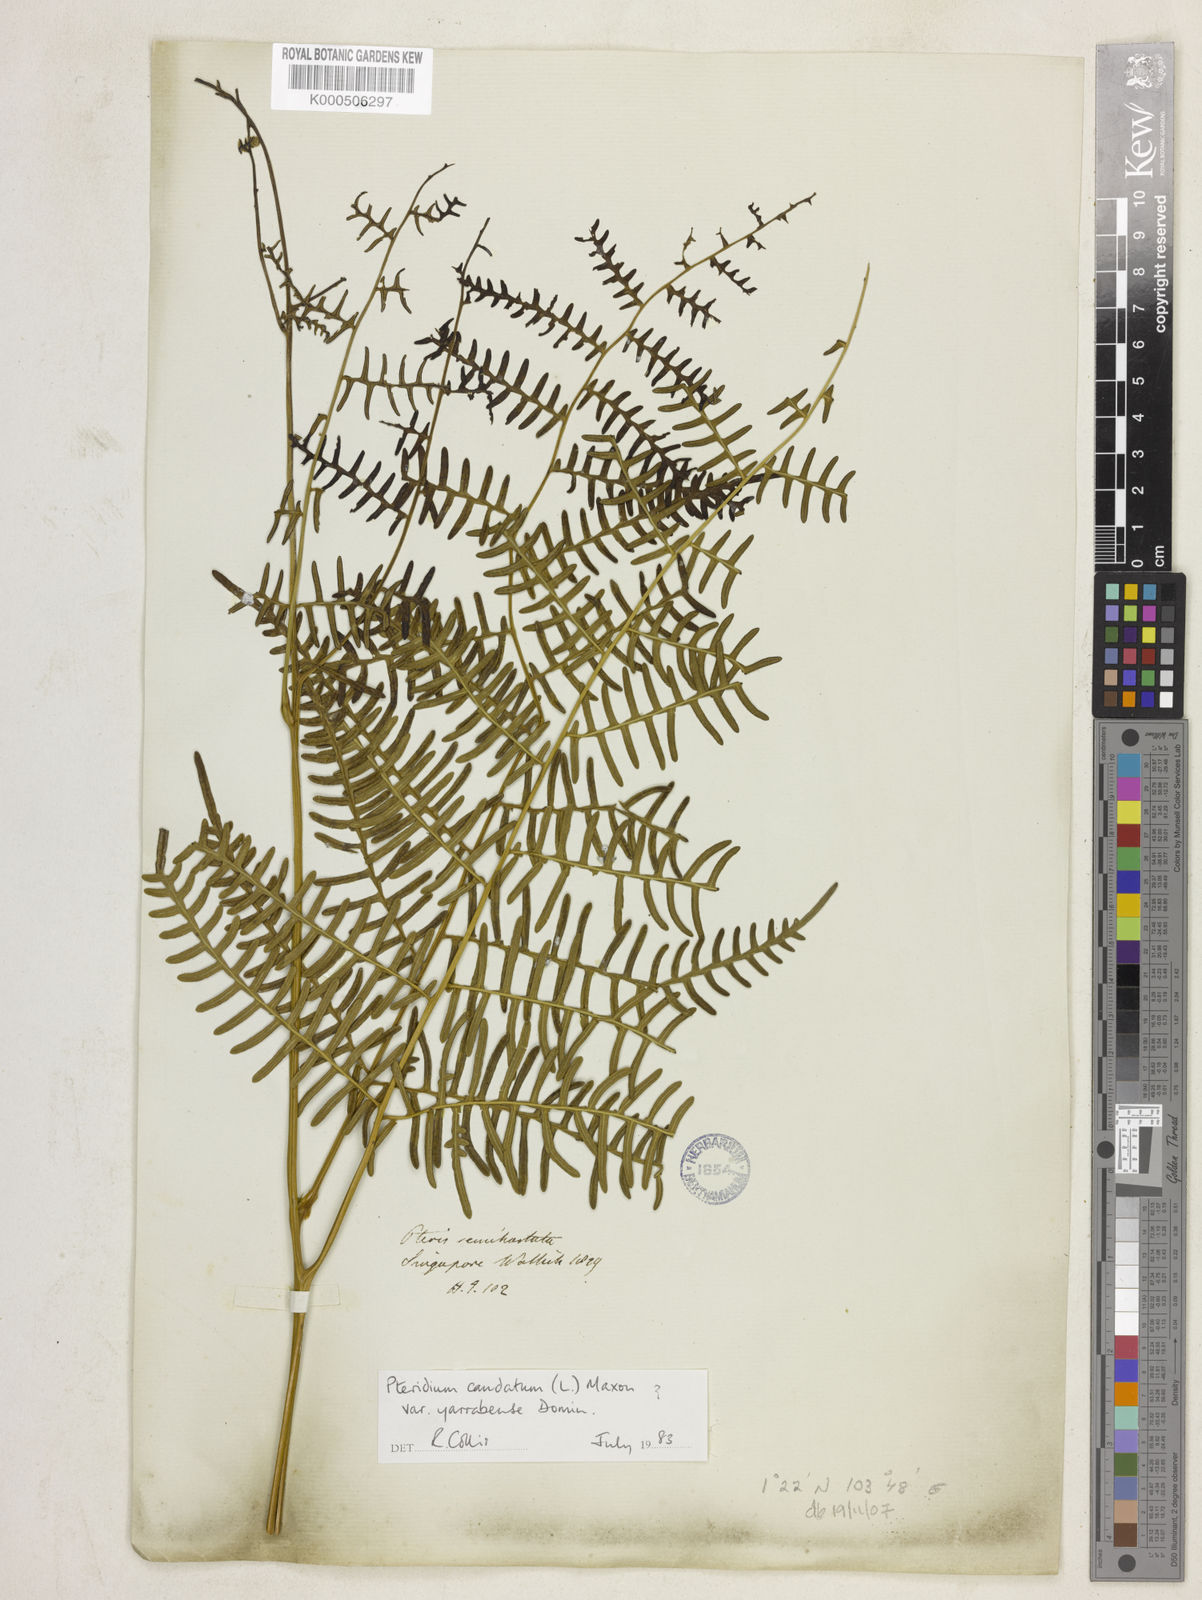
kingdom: Plantae
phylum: Tracheophyta
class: Polypodiopsida
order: Polypodiales
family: Dennstaedtiaceae
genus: Pteridium
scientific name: Pteridium rostratum
